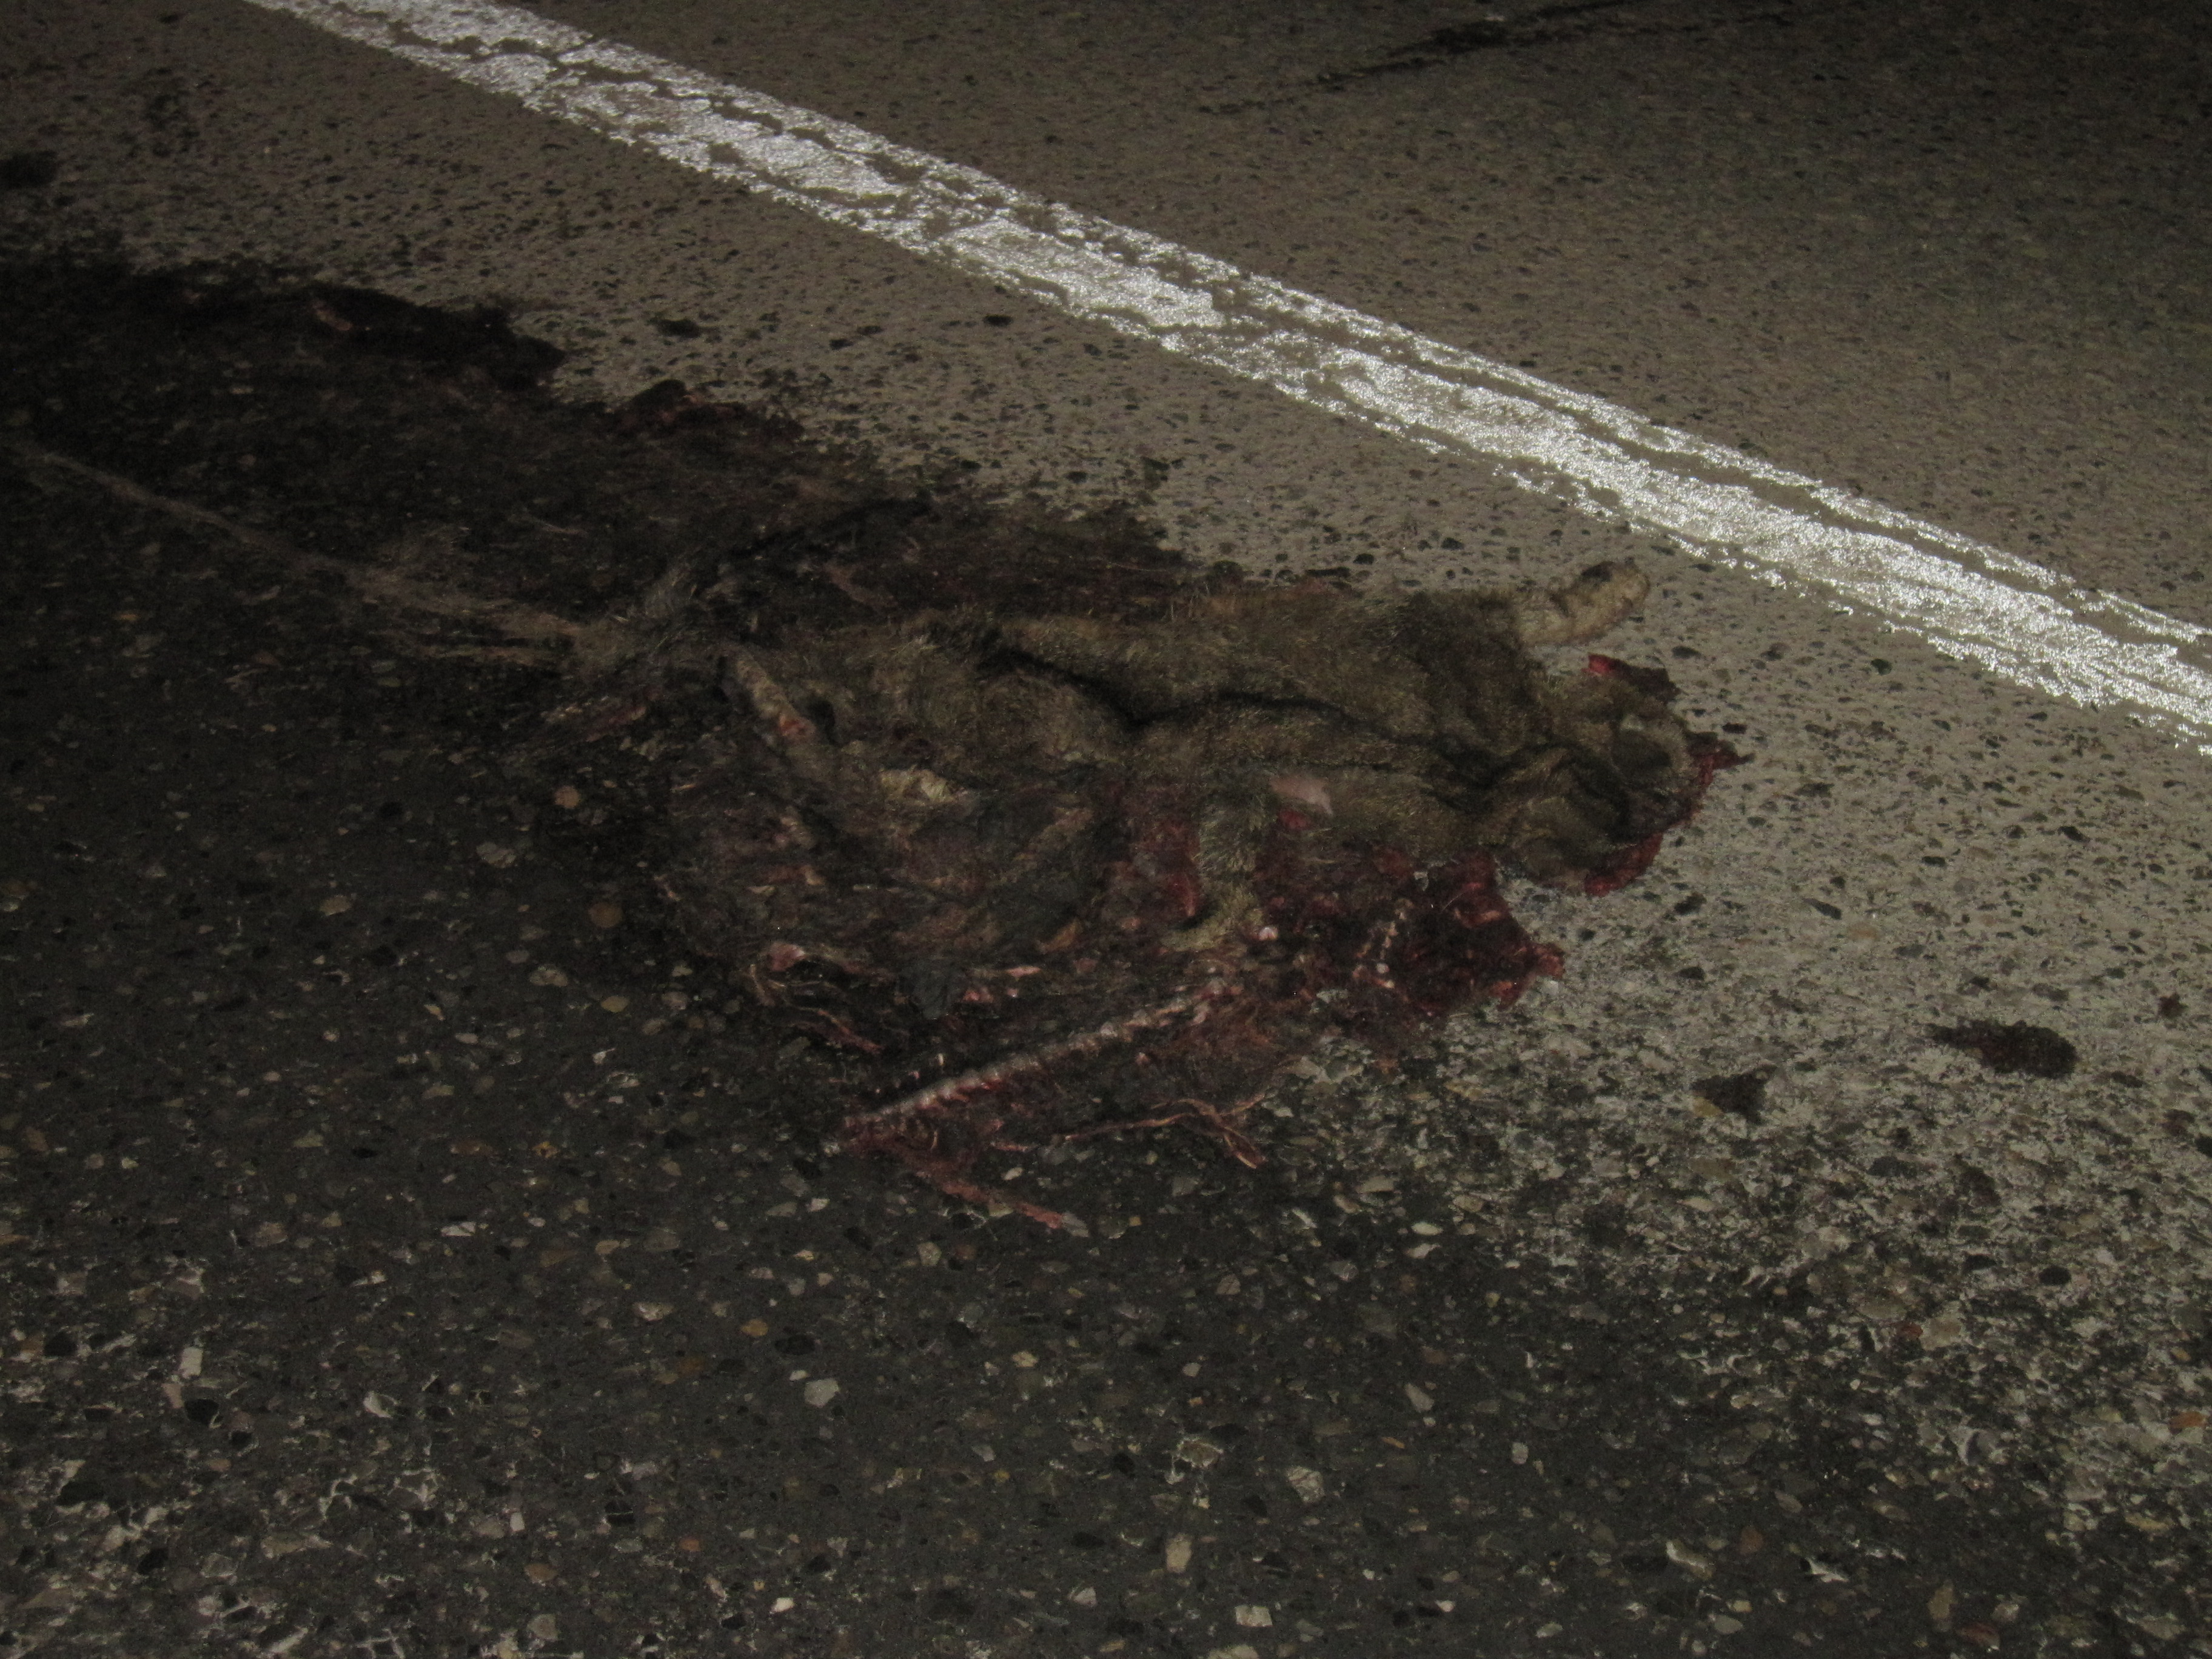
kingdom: Animalia
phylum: Chordata
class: Mammalia
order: Carnivora
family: Felidae
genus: Felis
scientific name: Felis catus
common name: Domestic cat
